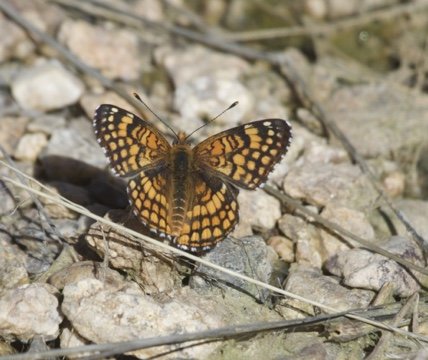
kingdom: Animalia
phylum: Arthropoda
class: Insecta
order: Lepidoptera
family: Nymphalidae
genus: Chlosyne
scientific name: Chlosyne acastus
